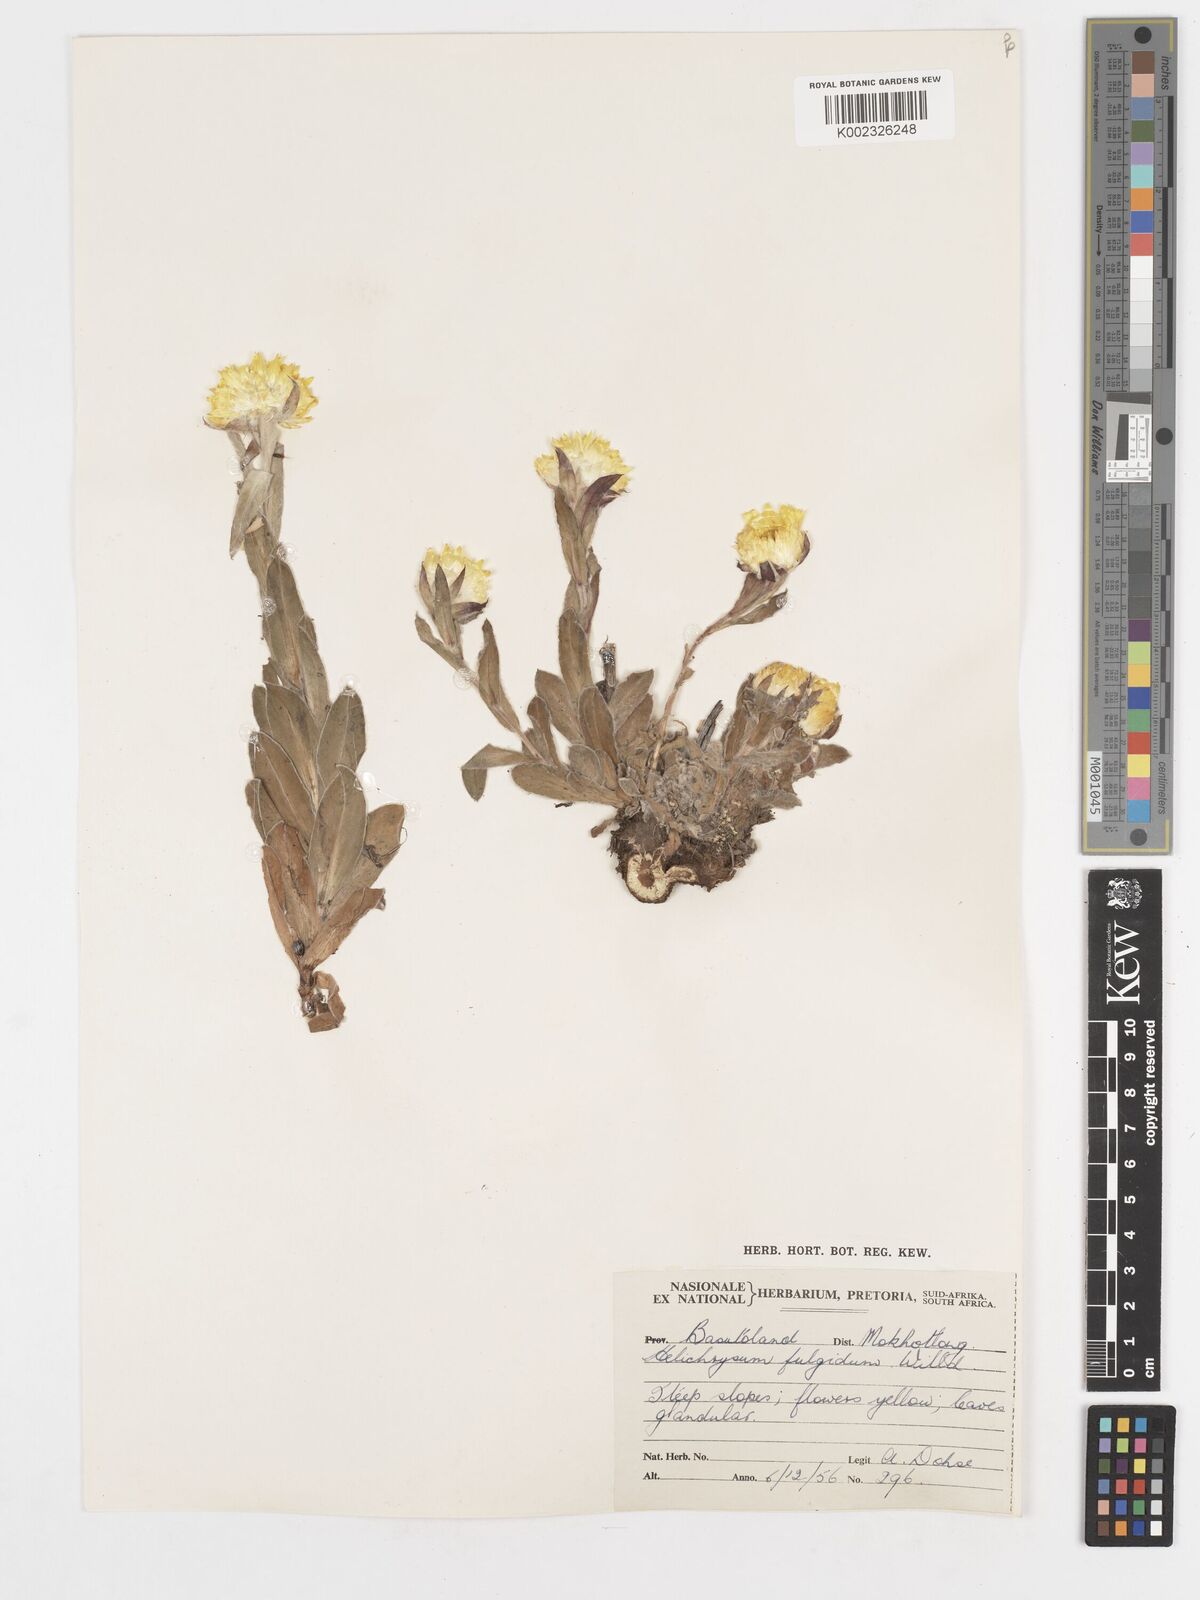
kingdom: Plantae
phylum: Tracheophyta
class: Magnoliopsida
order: Asterales
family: Asteraceae
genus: Helichrysum
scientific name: Helichrysum aureum
